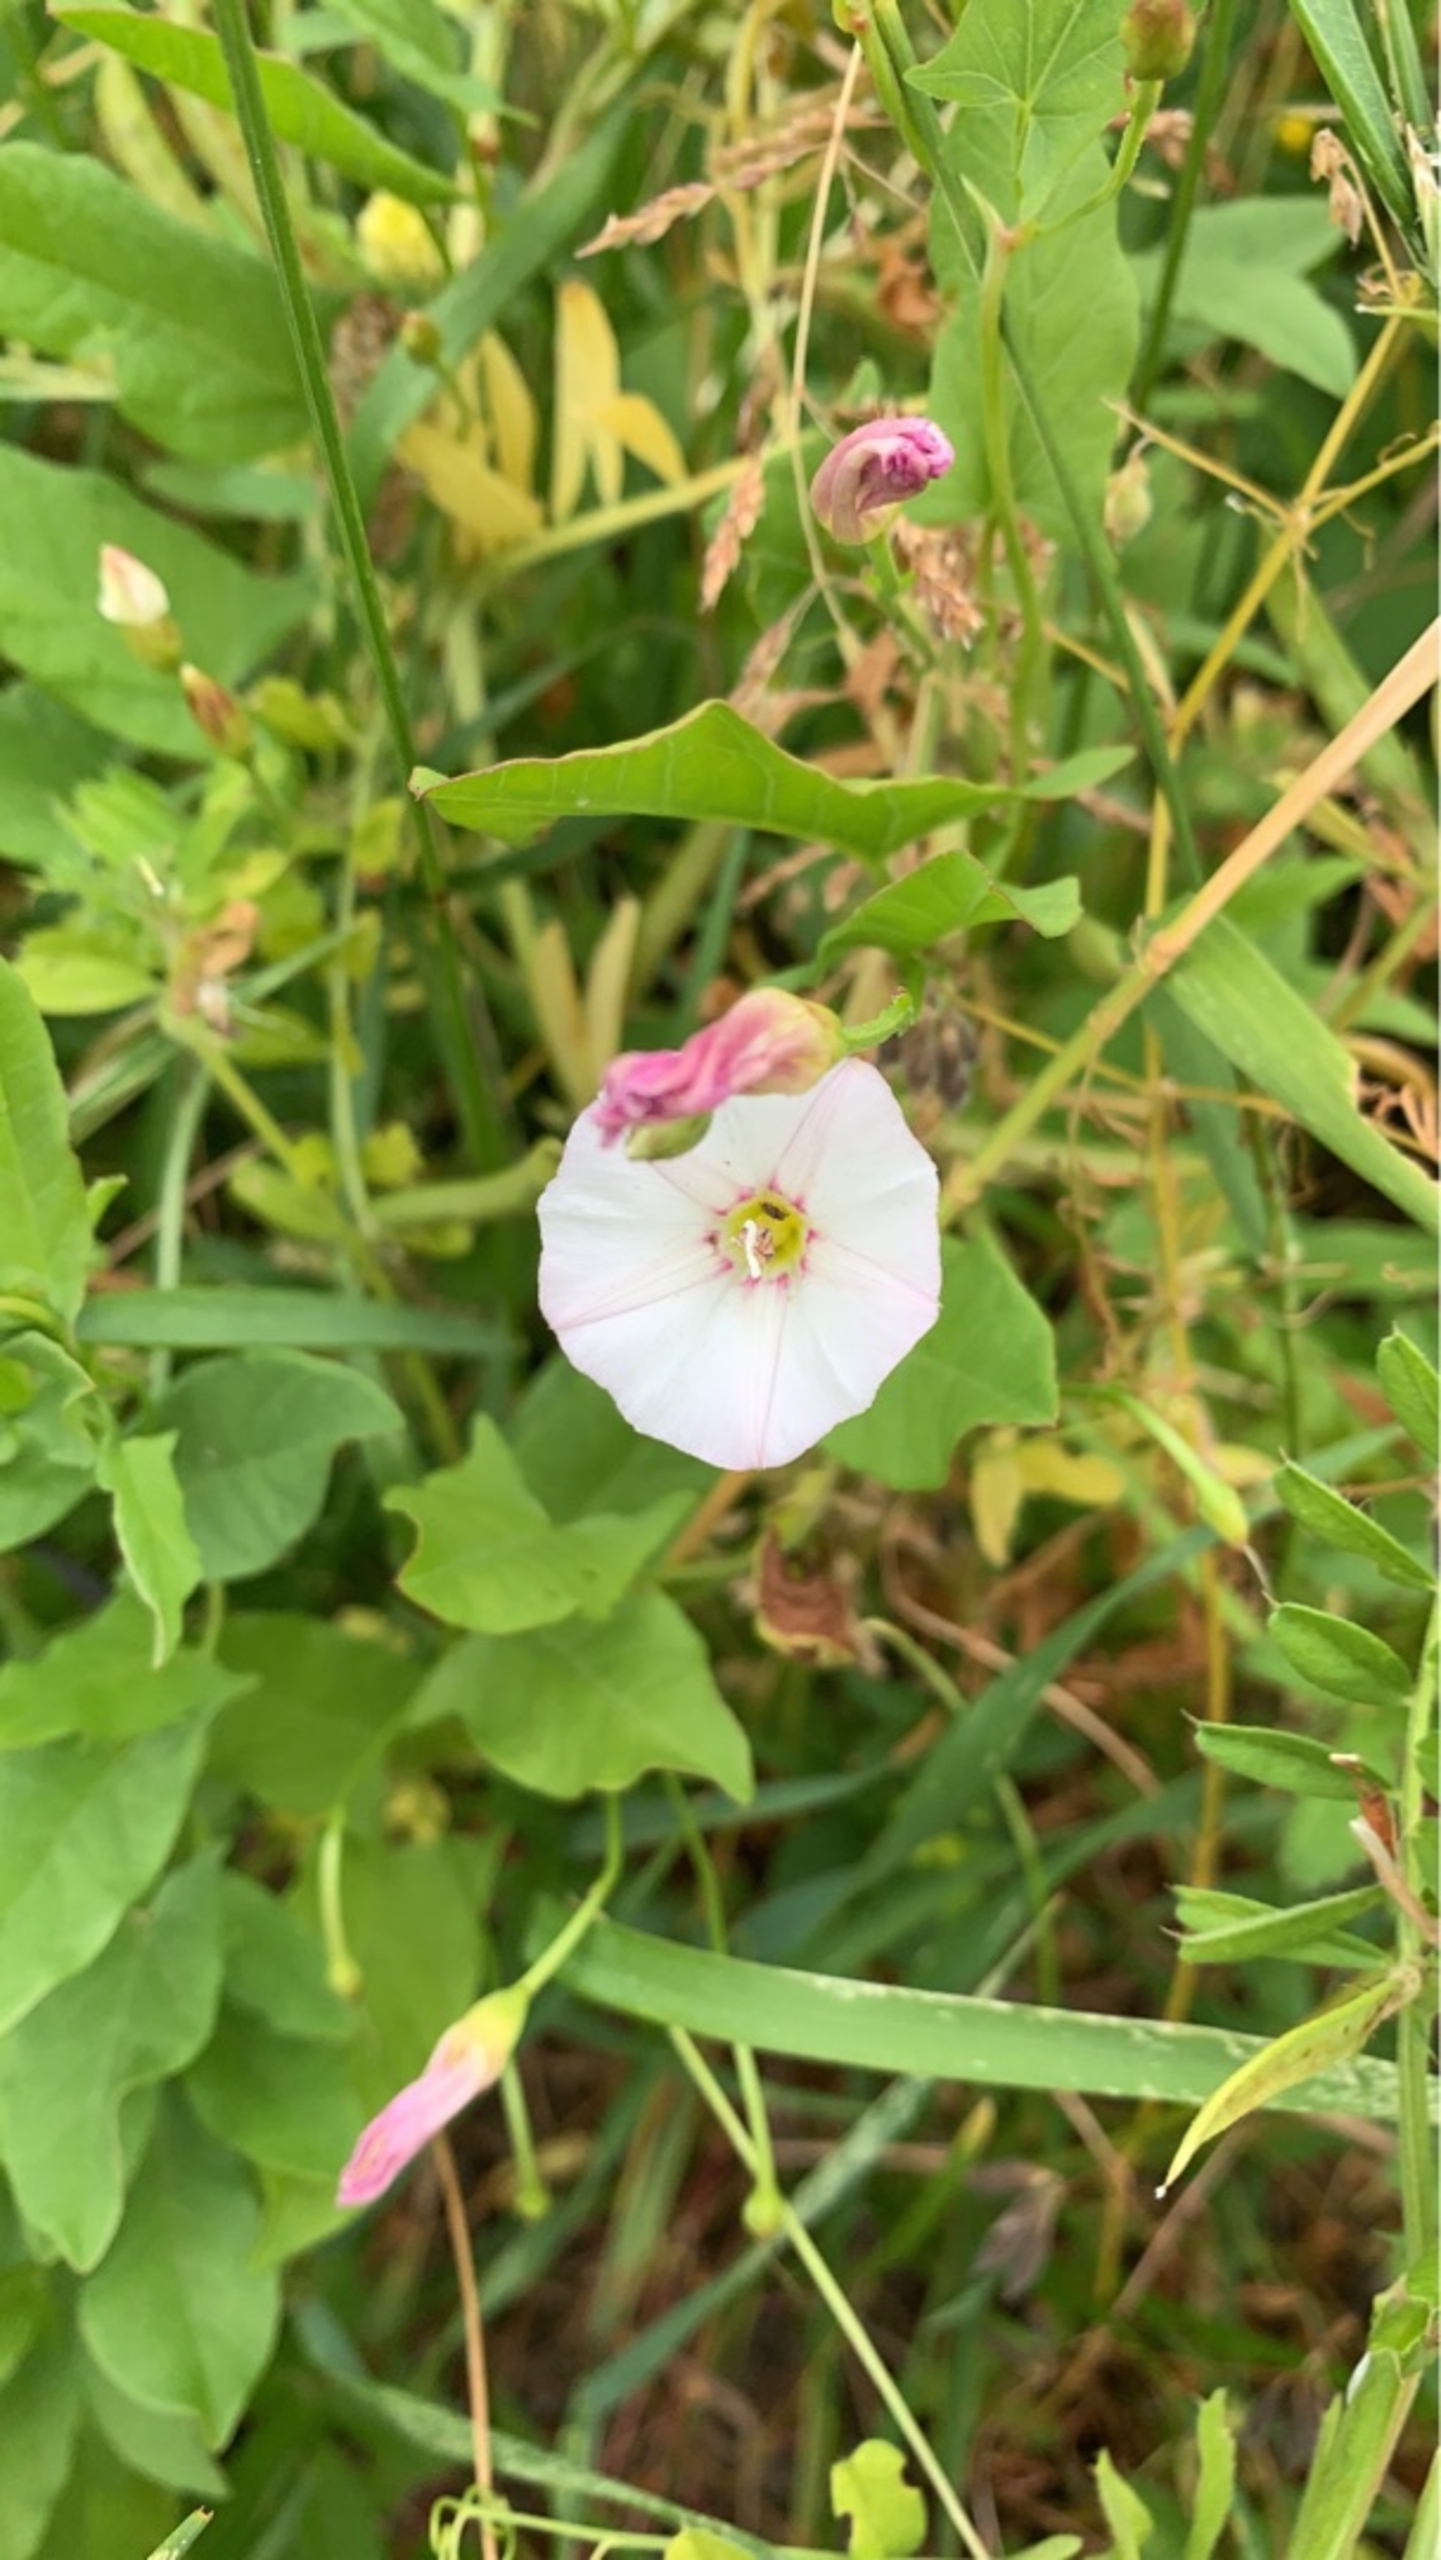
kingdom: Plantae
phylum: Tracheophyta
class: Magnoliopsida
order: Solanales
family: Convolvulaceae
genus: Convolvulus
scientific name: Convolvulus arvensis
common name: Ager-snerle
